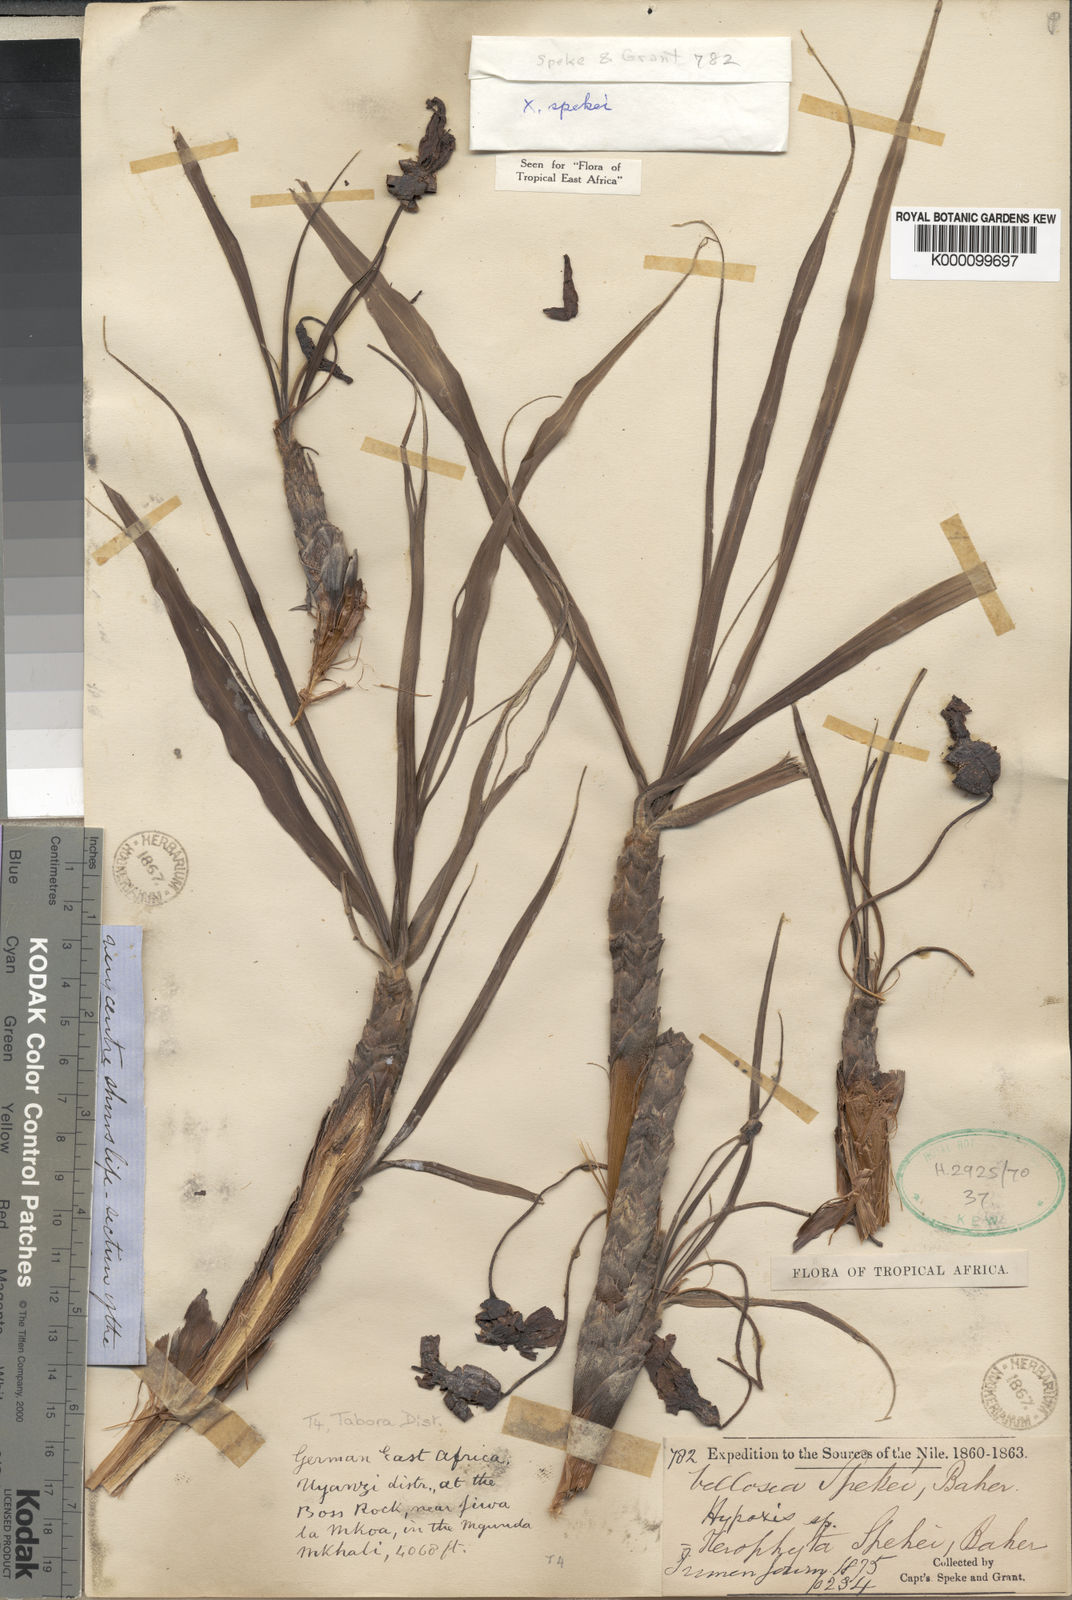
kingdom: Plantae
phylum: Tracheophyta
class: Liliopsida
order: Pandanales
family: Velloziaceae
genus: Xerophyta
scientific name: Xerophyta spekei
